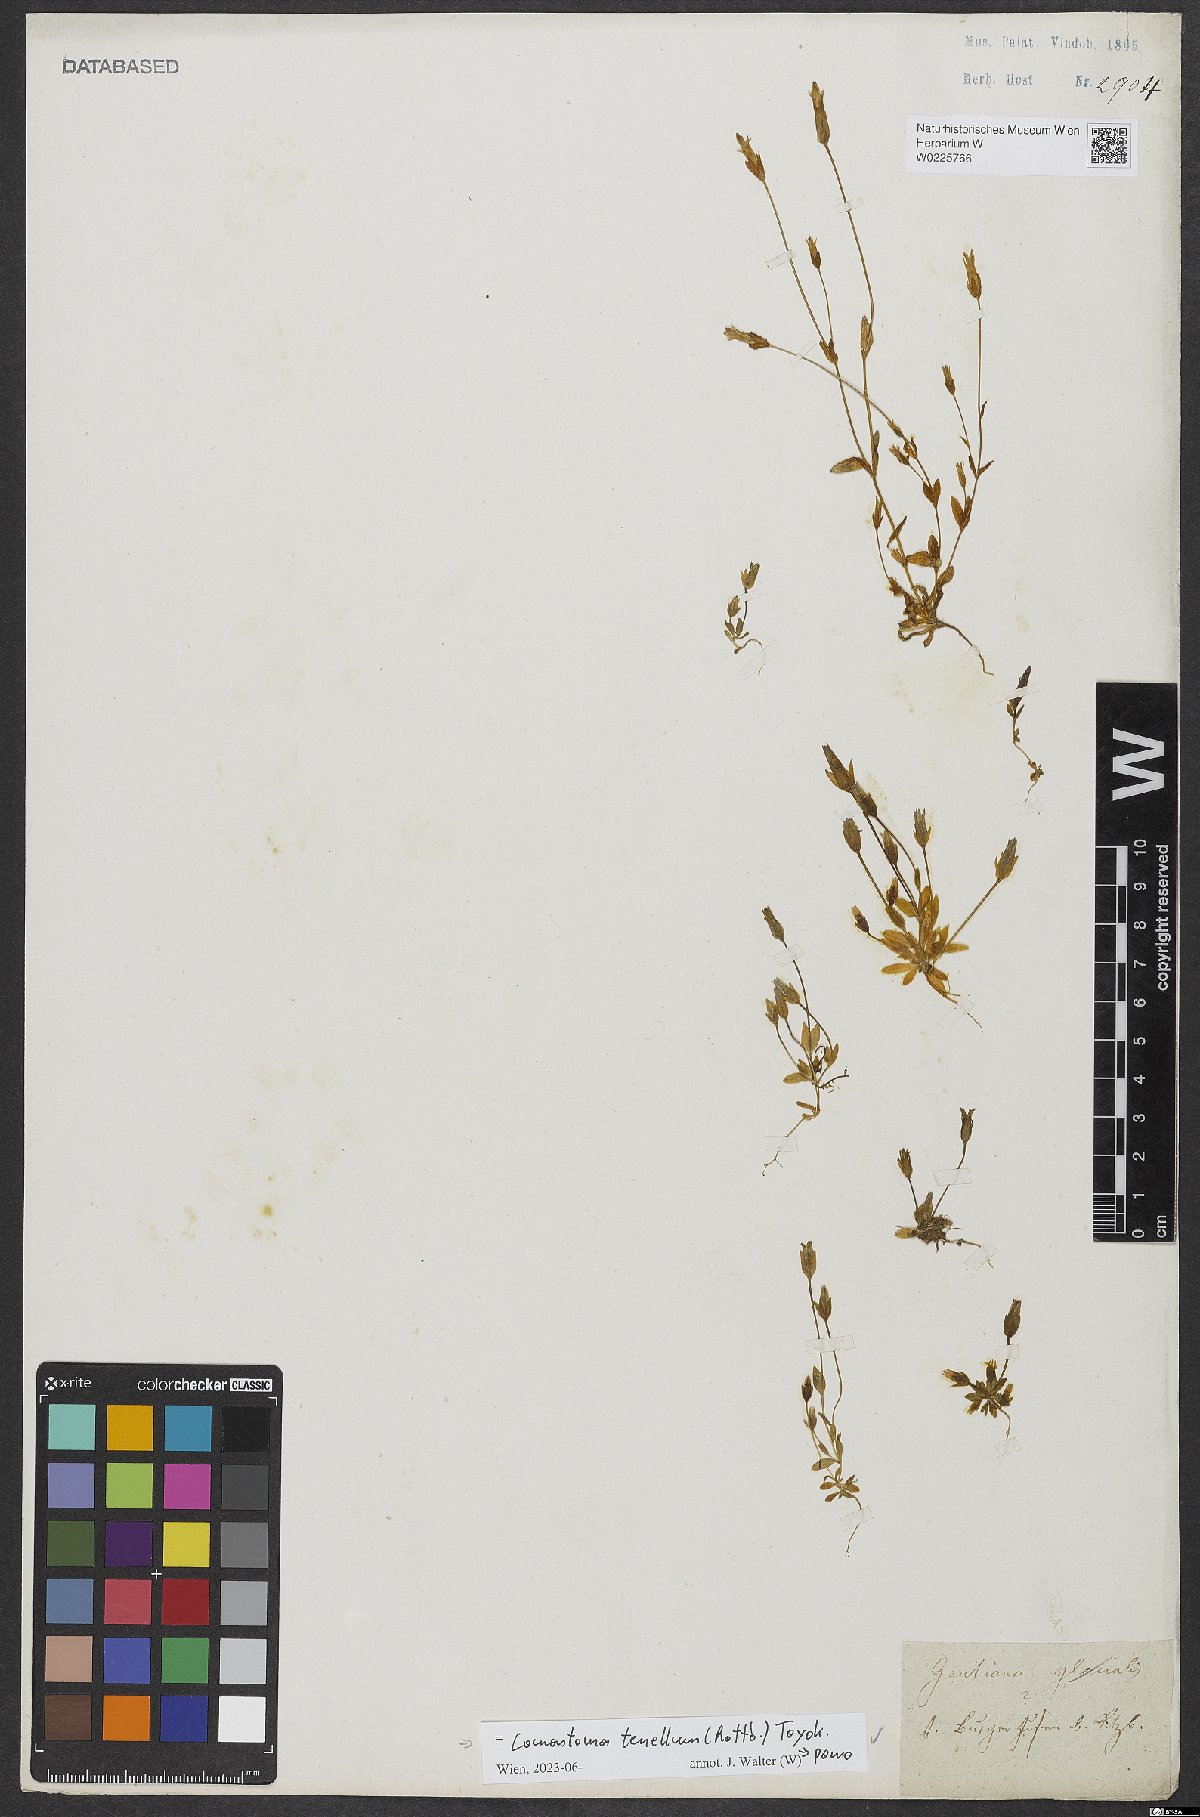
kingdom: Plantae
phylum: Tracheophyta
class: Magnoliopsida
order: Gentianales
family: Gentianaceae
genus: Comastoma
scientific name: Comastoma tenellum
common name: Dane's dwarf gentian
